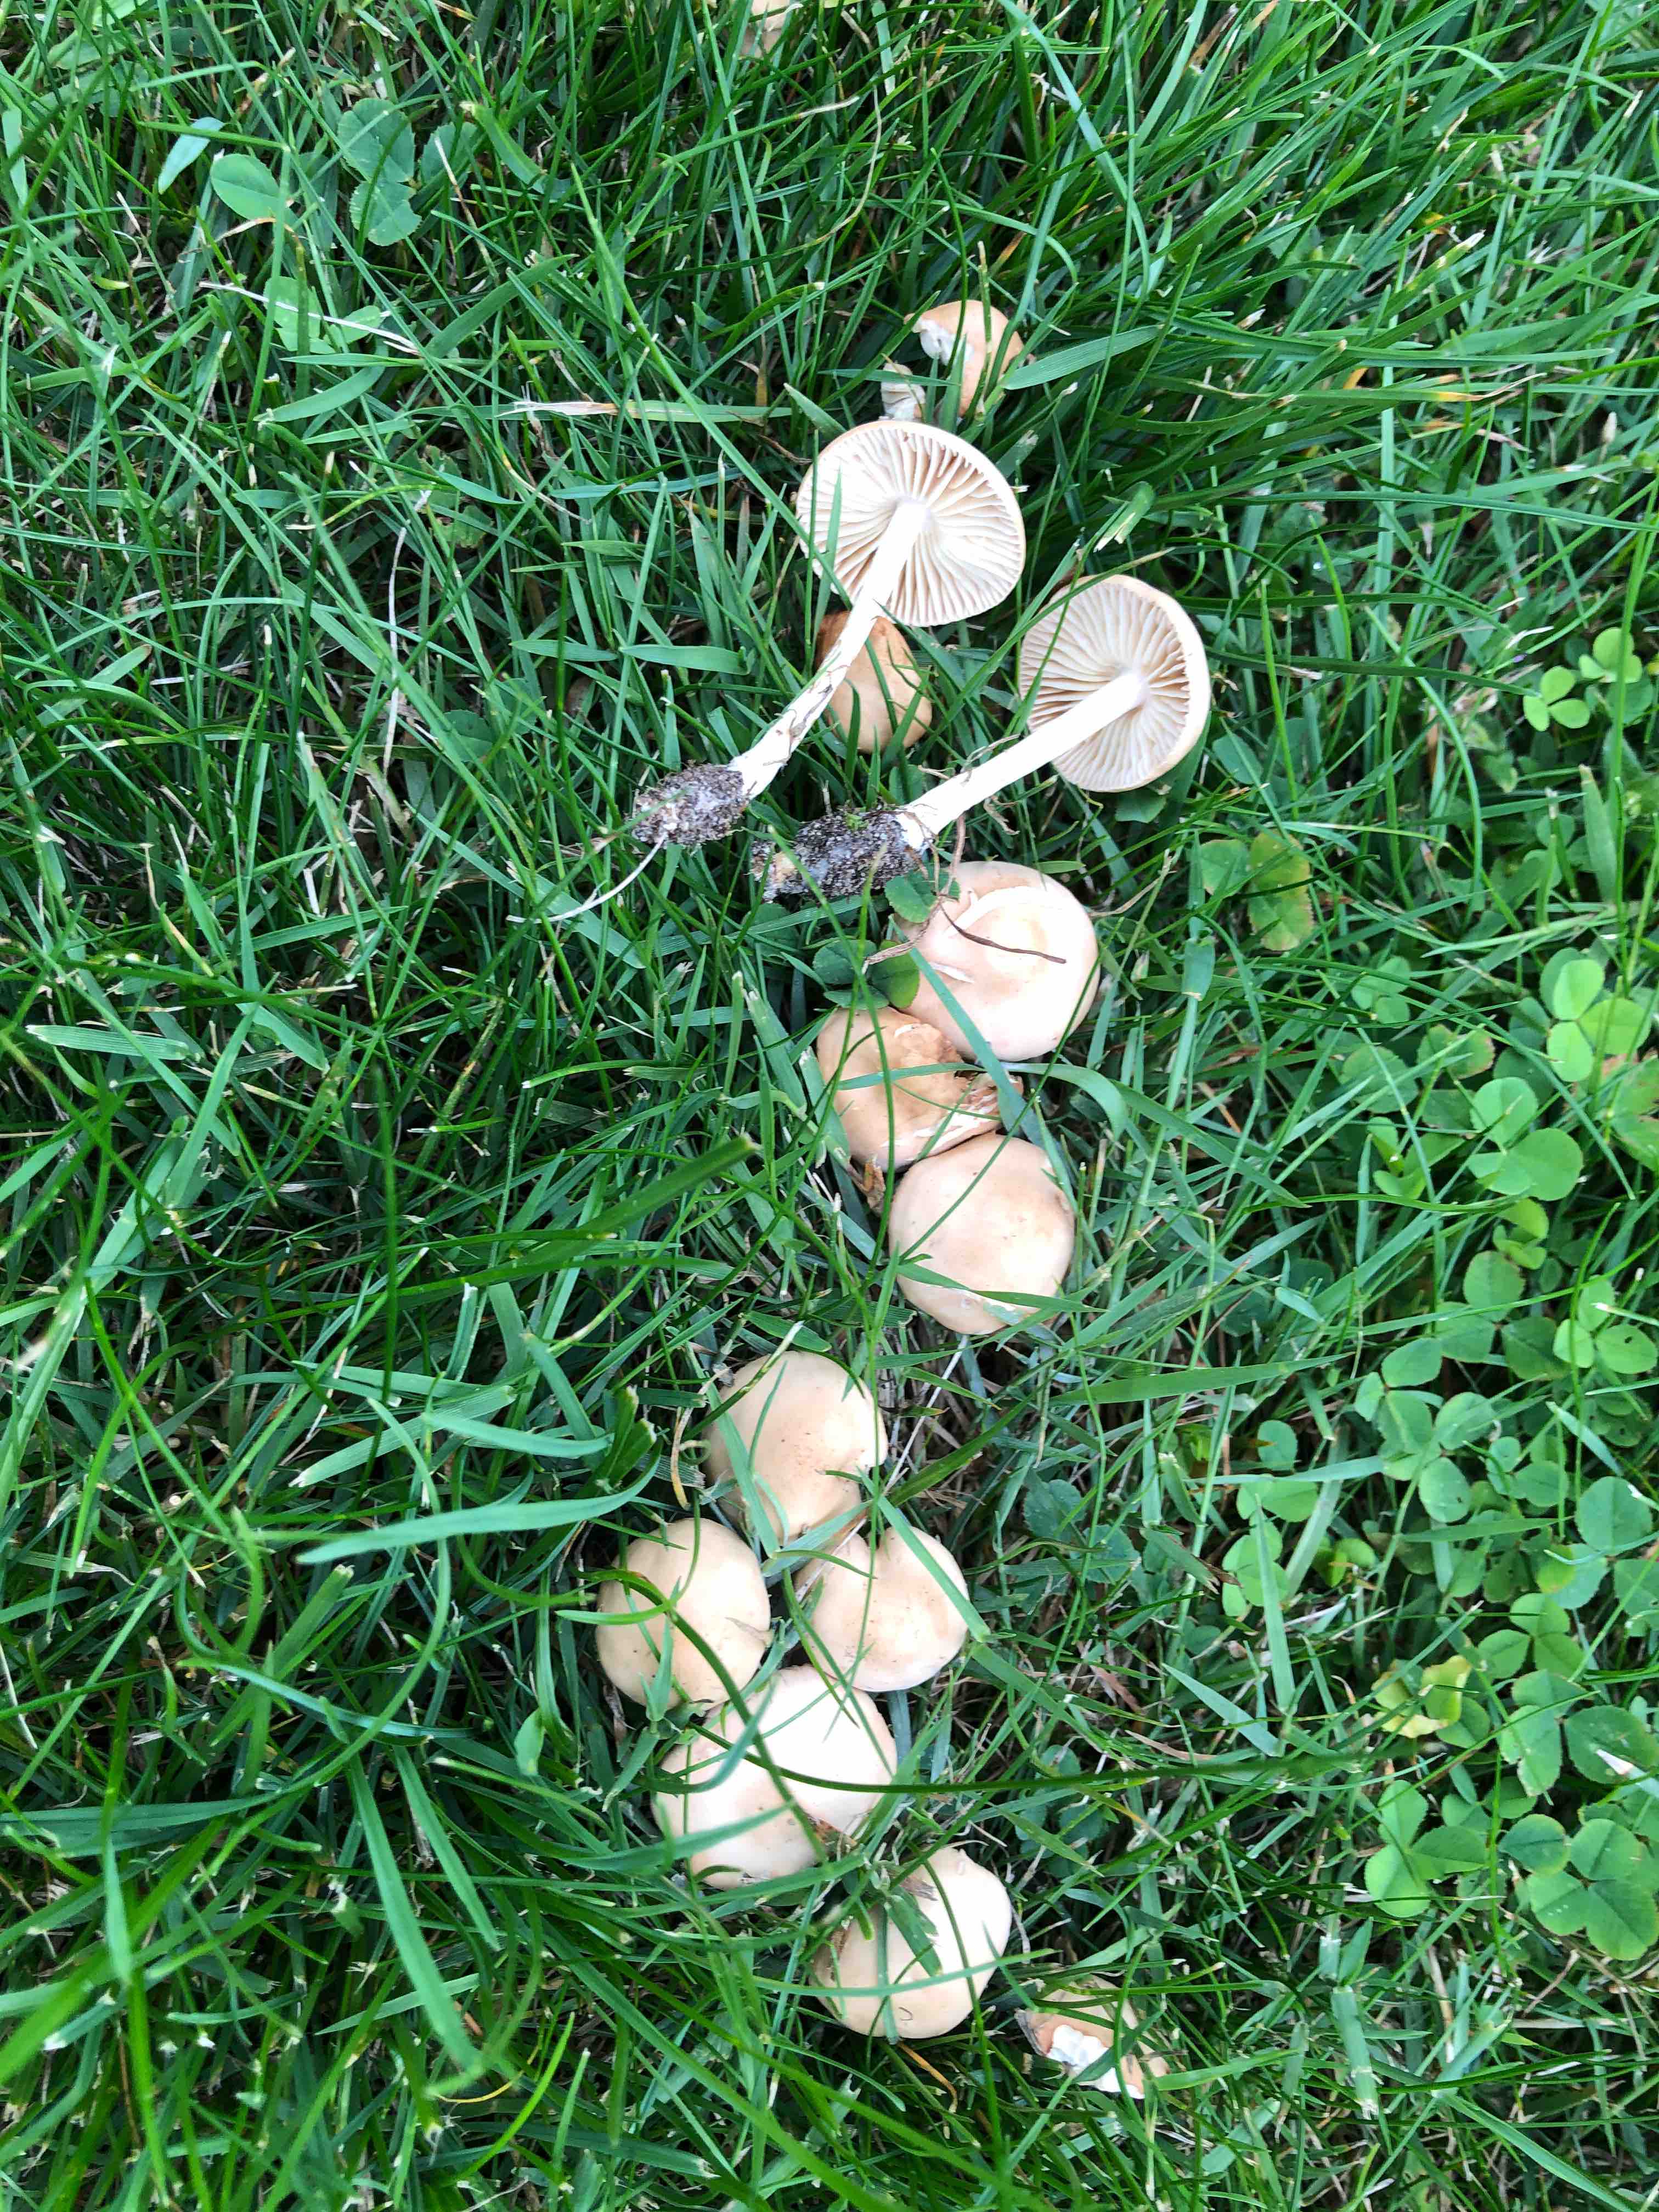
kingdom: Fungi
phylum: Basidiomycota
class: Agaricomycetes
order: Agaricales
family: Marasmiaceae
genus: Marasmius
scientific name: Marasmius oreades
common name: elledans-bruskhat
